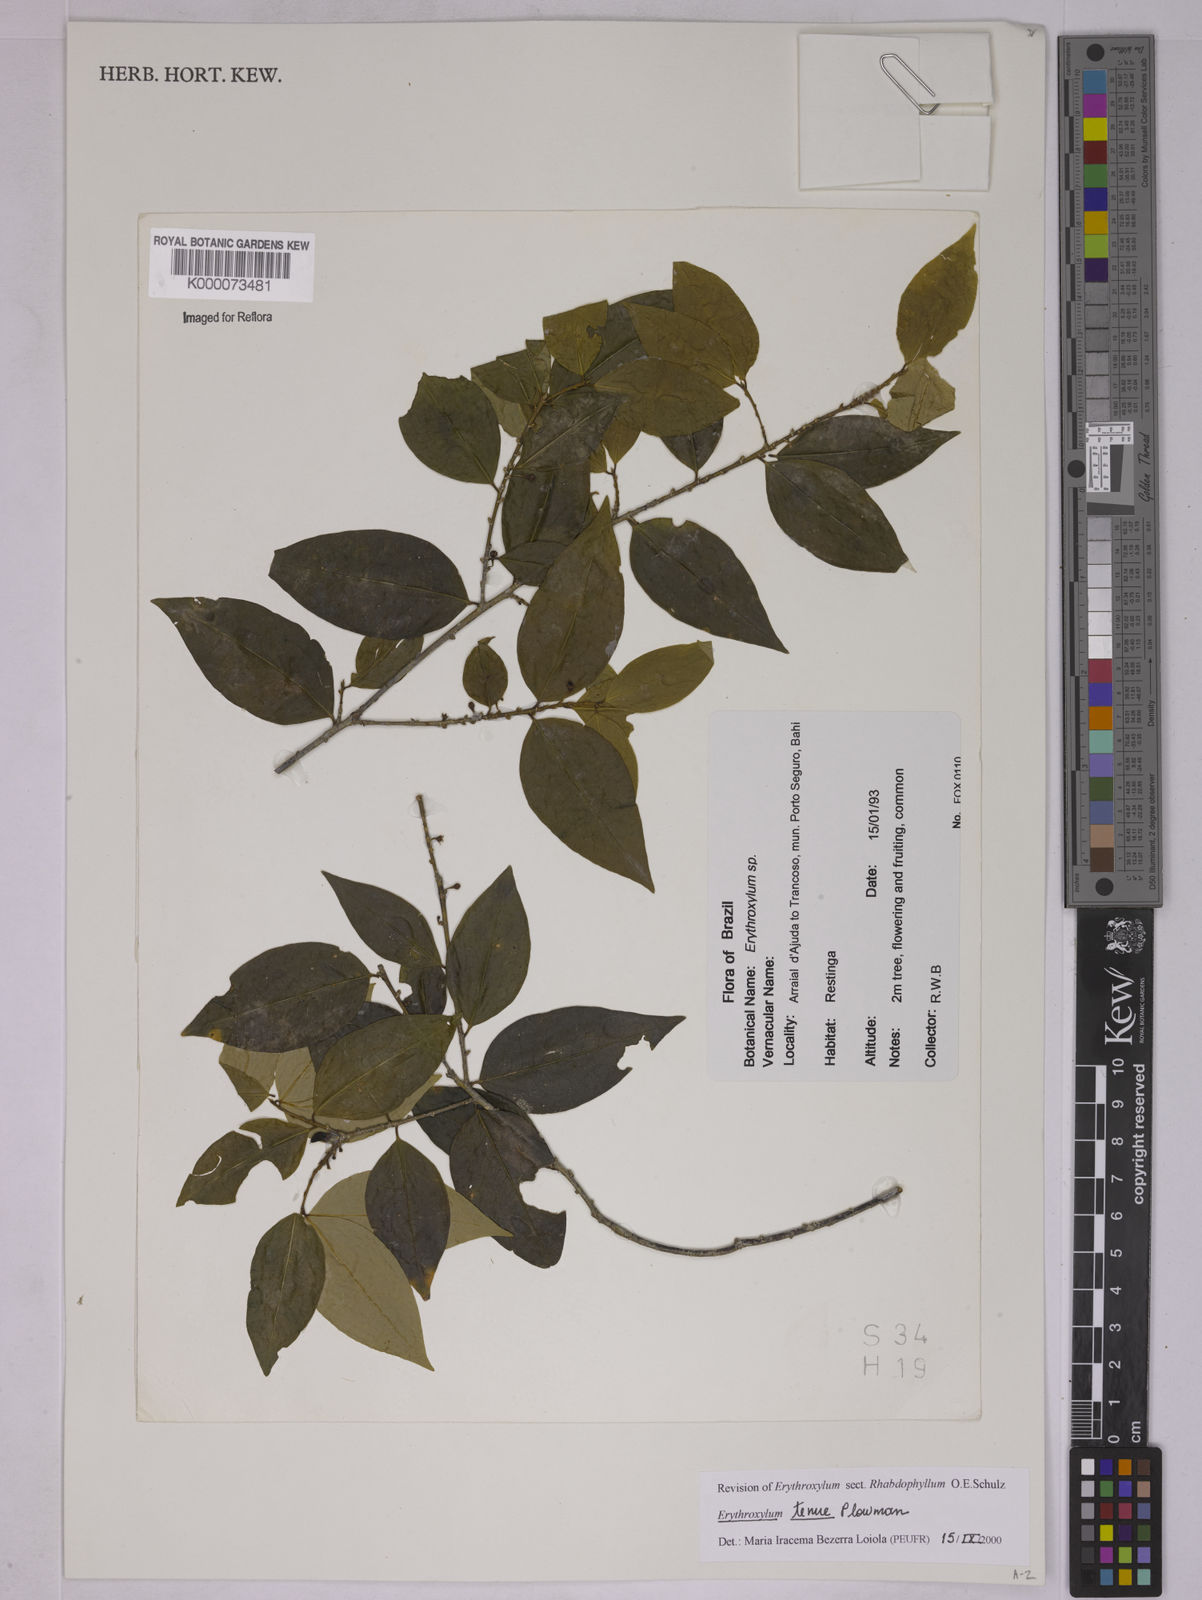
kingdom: Plantae
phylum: Tracheophyta
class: Magnoliopsida
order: Malpighiales
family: Erythroxylaceae
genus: Erythroxylum
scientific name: Erythroxylum tenue
